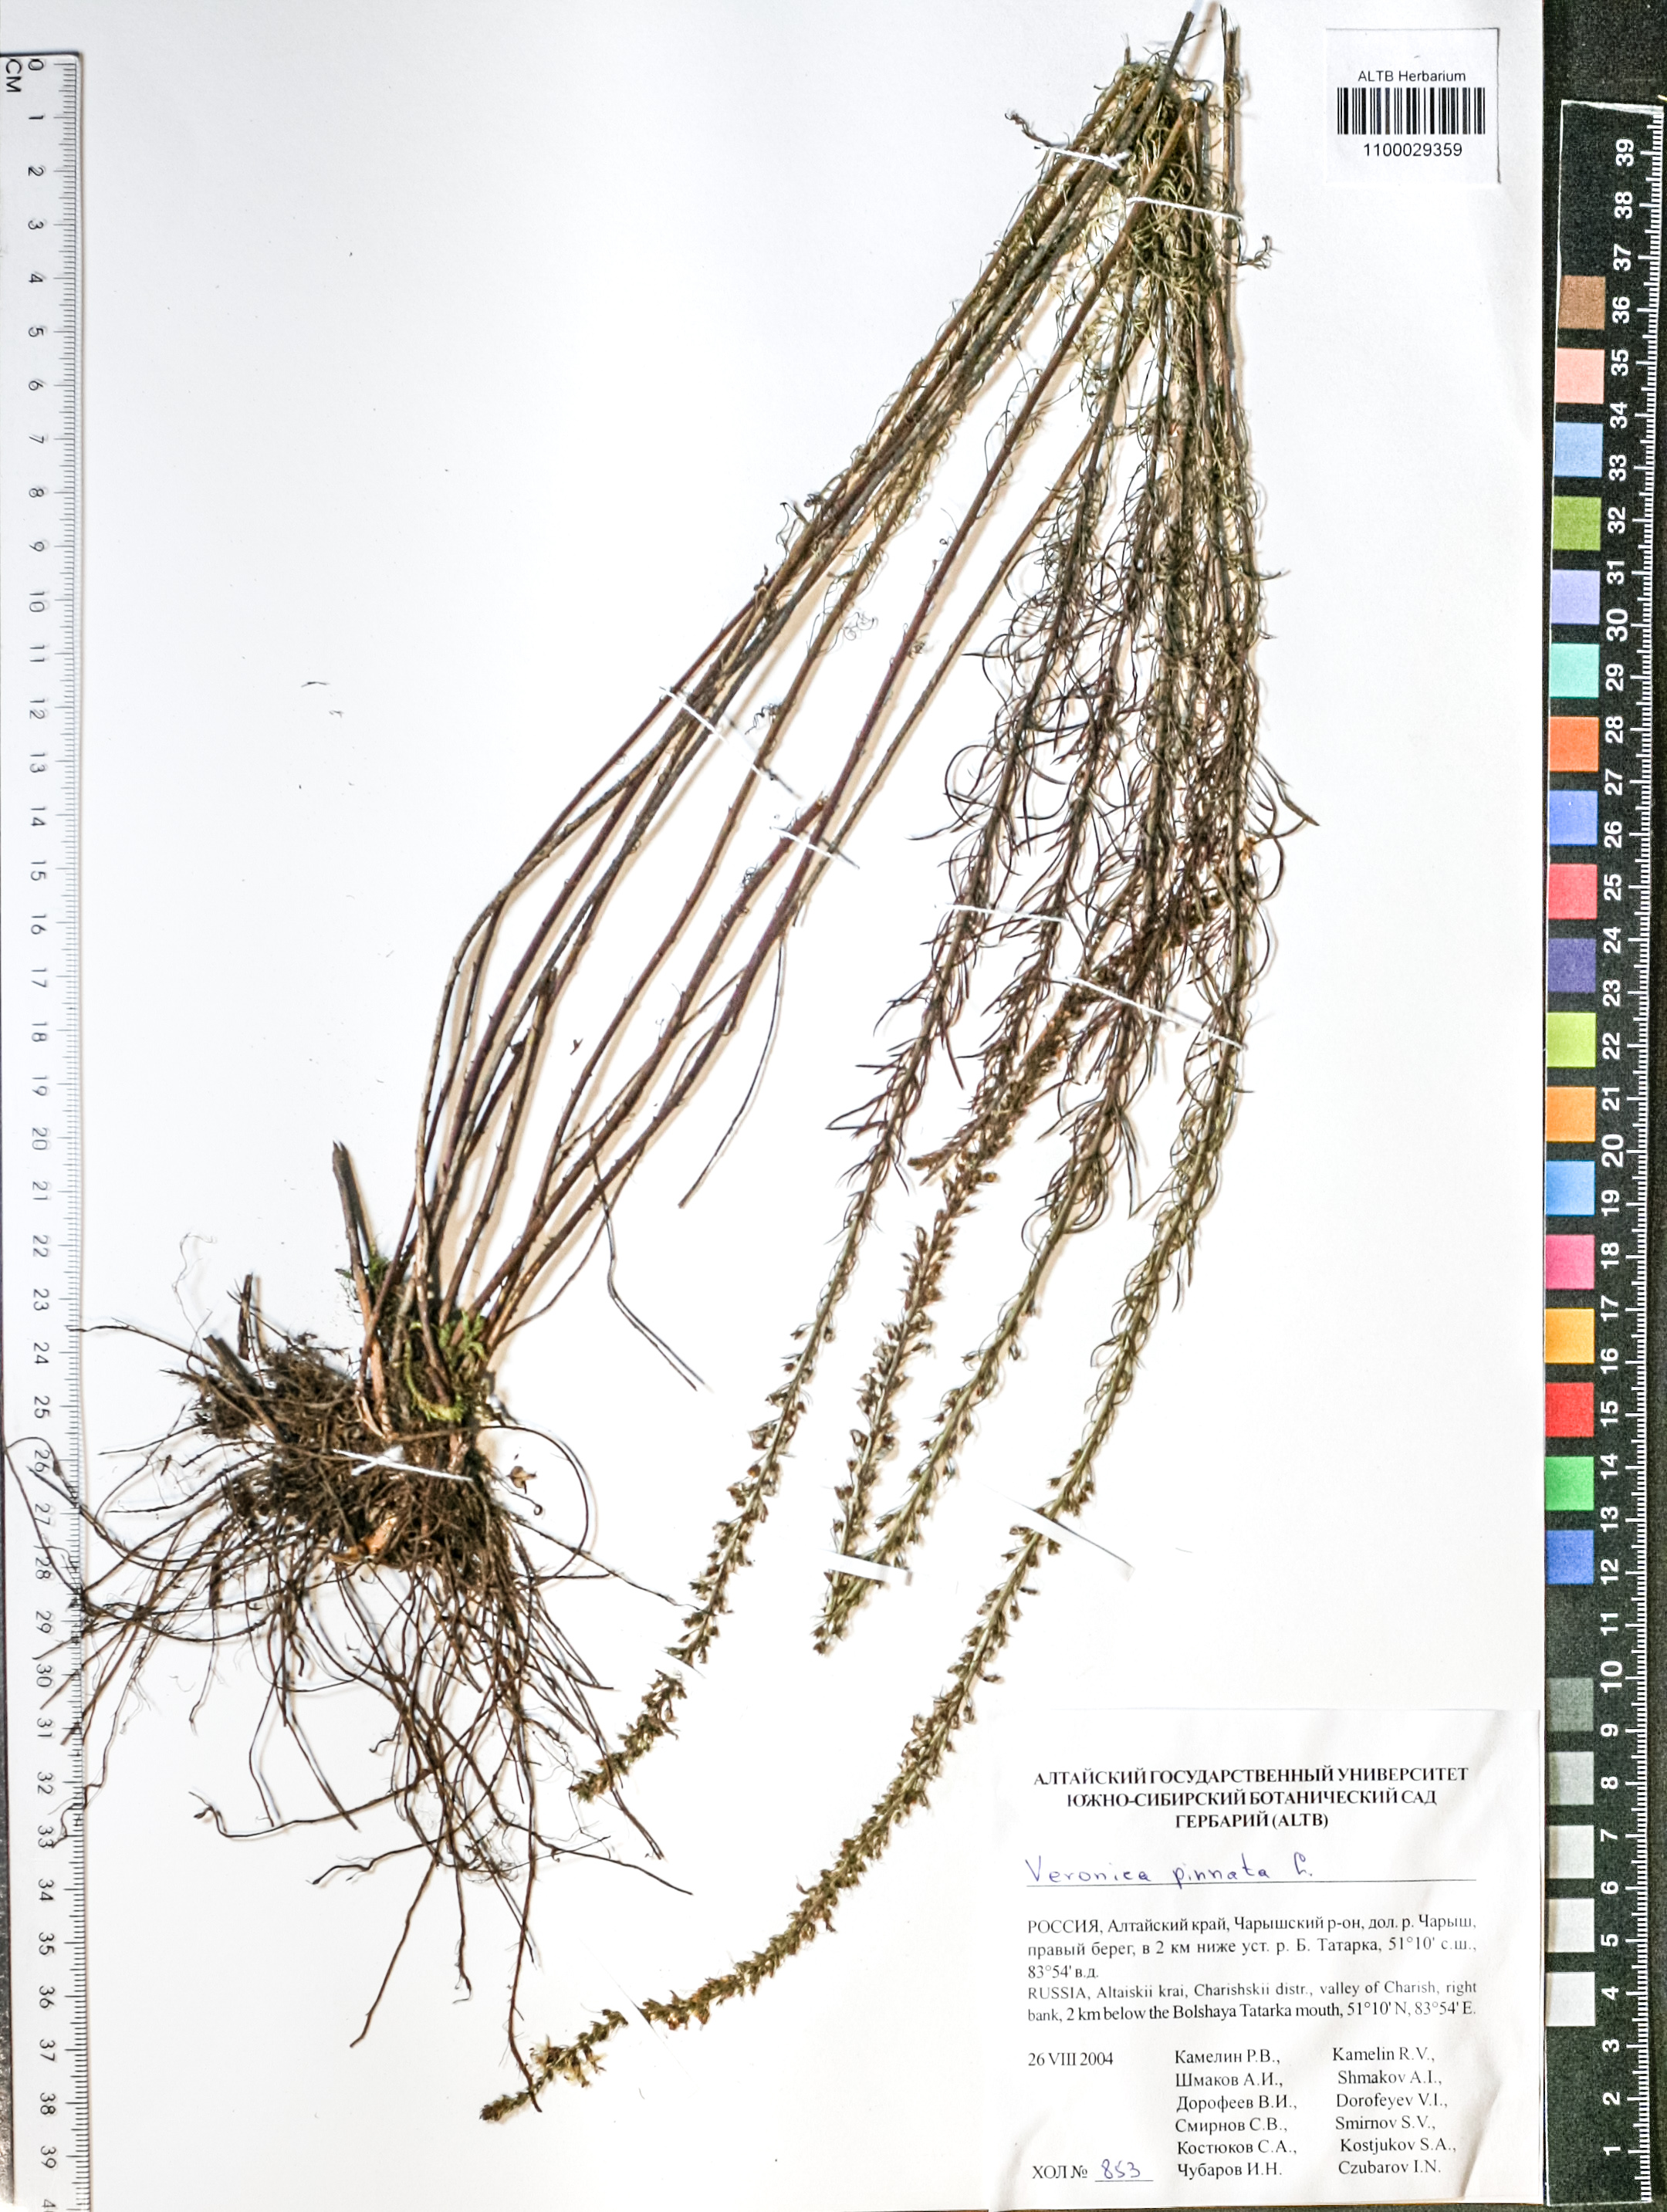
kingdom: Plantae
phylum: Tracheophyta
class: Magnoliopsida
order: Lamiales
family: Plantaginaceae
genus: Veronica
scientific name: Veronica pinnata
